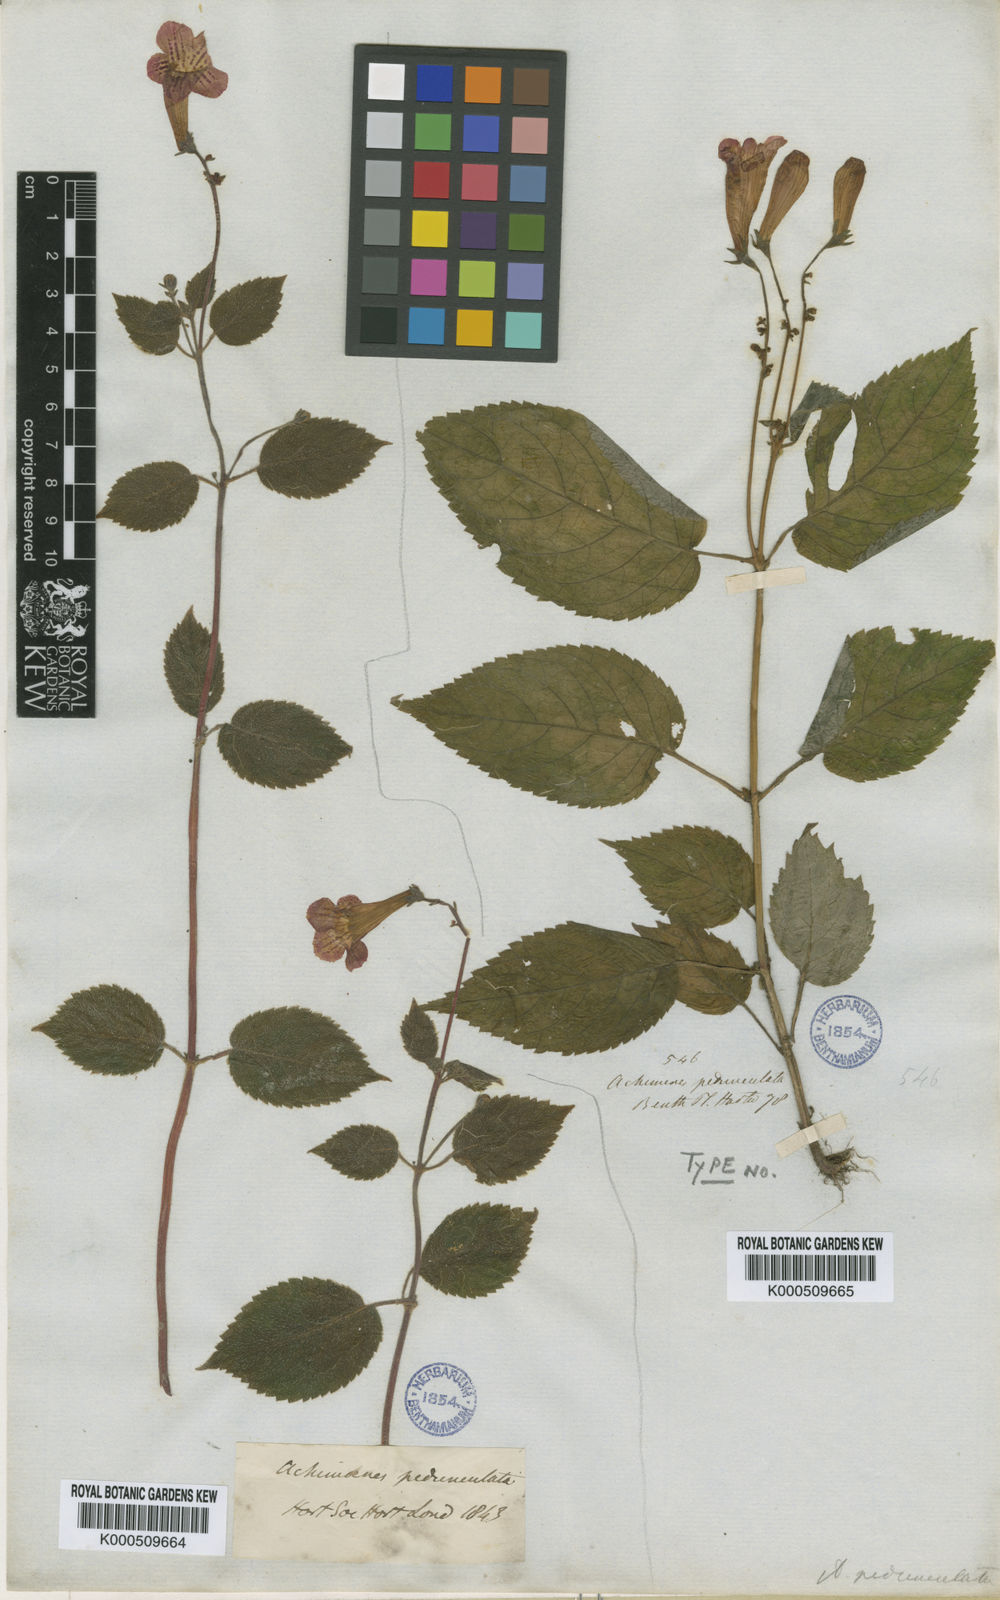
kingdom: Plantae
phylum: Tracheophyta
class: Magnoliopsida
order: Lamiales
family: Gesneriaceae
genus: Achimenes
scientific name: Achimenes pedunculata
